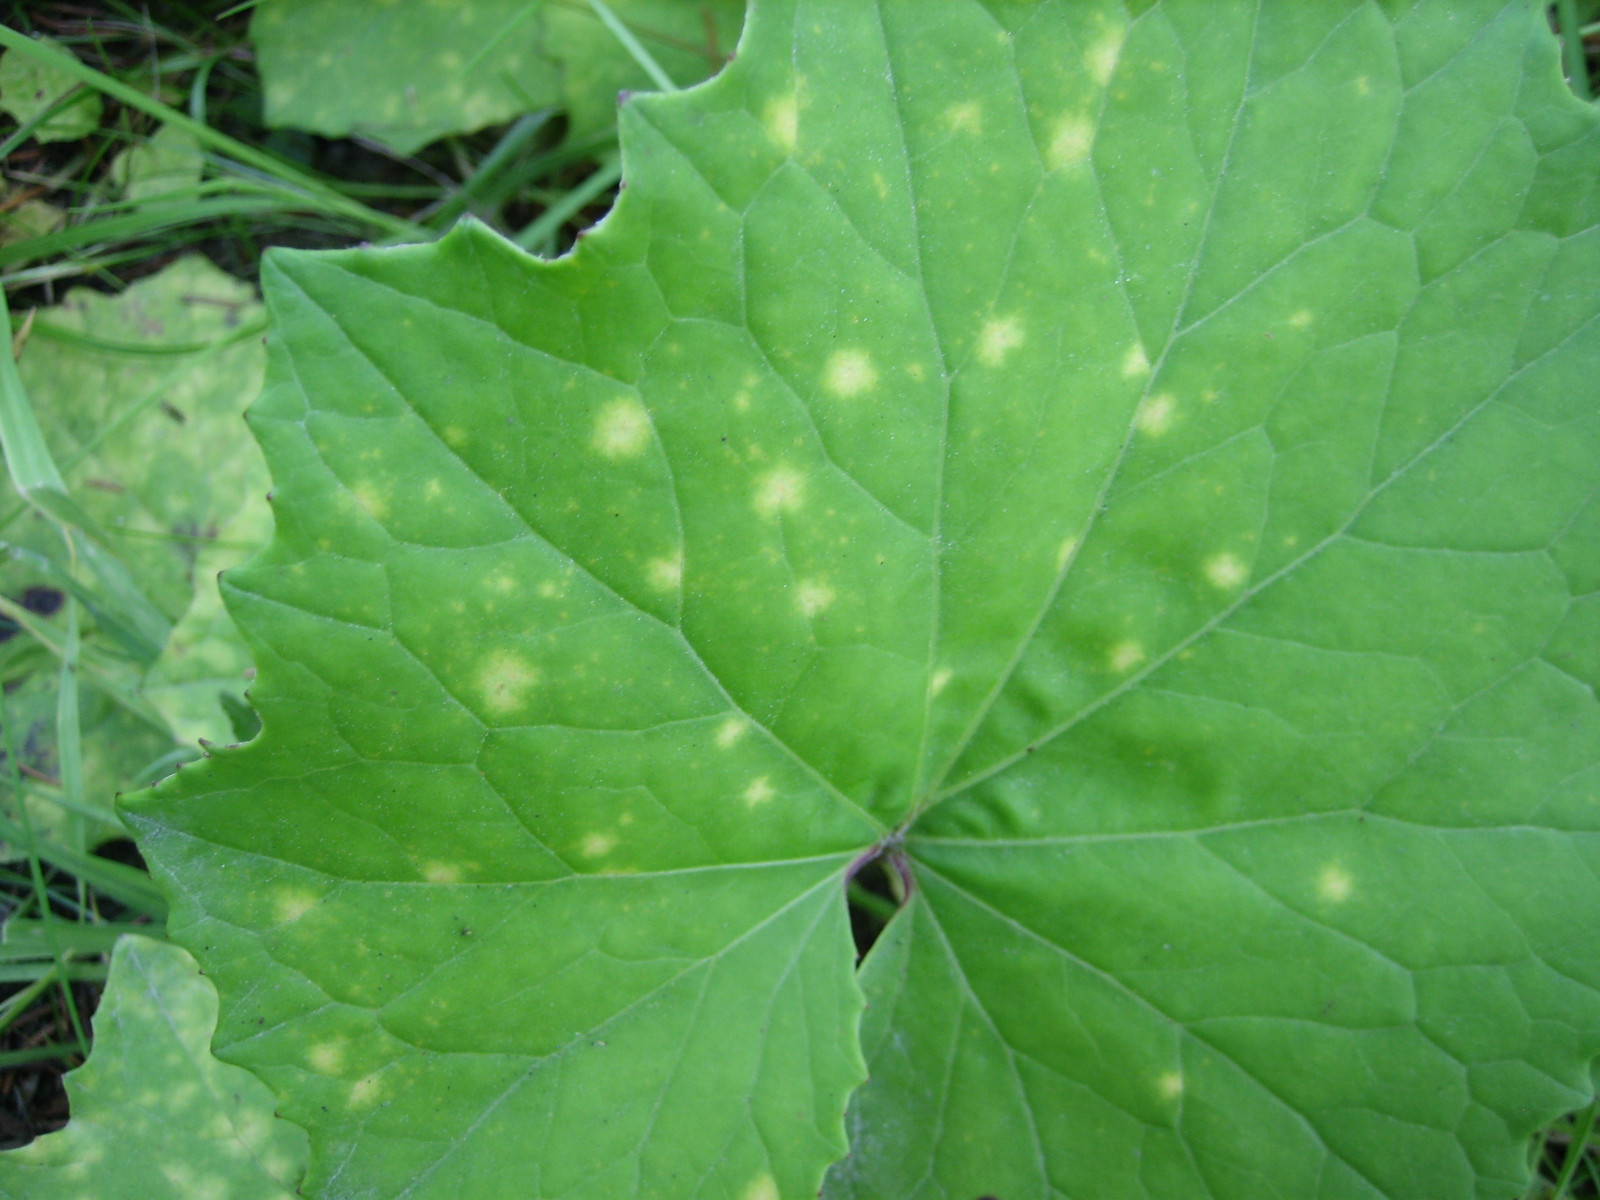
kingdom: Fungi
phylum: Basidiomycota
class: Pucciniomycetes
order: Pucciniales
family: Coleosporiaceae
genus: Coleosporium
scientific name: Coleosporium tussilaginis
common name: almindelig fyrrenålerust
